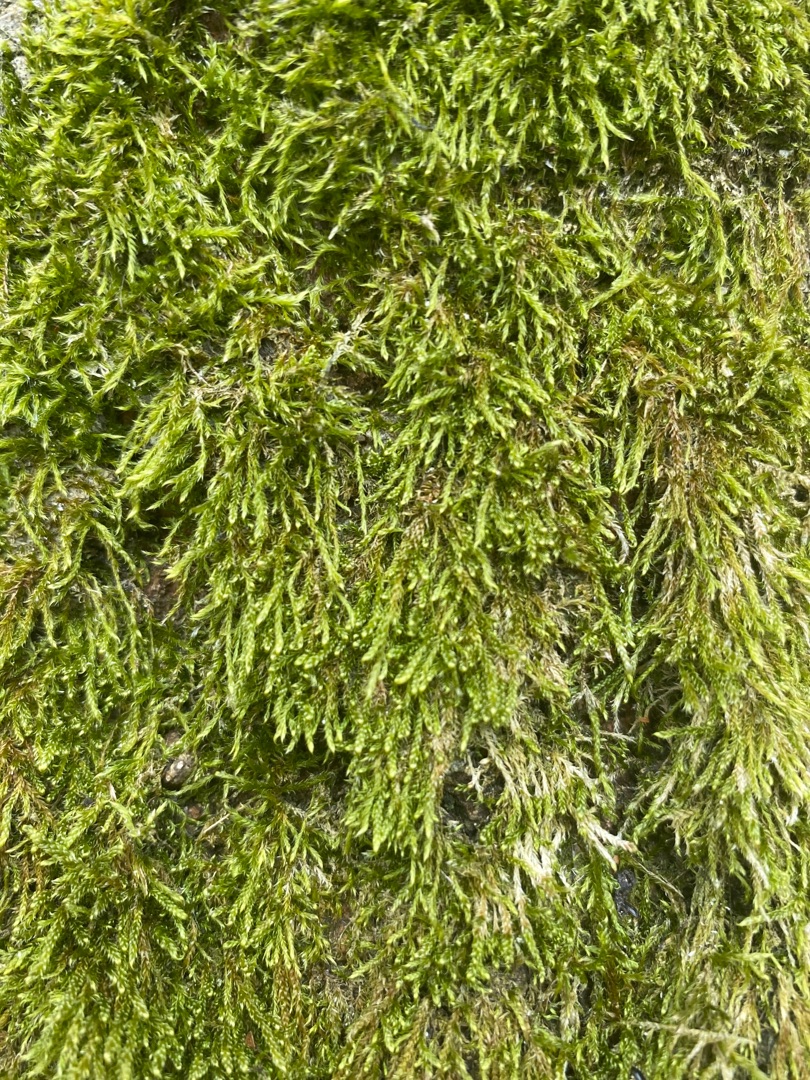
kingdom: Plantae
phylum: Bryophyta
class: Bryopsida
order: Hypnales
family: Hypnaceae
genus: Hypnum
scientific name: Hypnum
